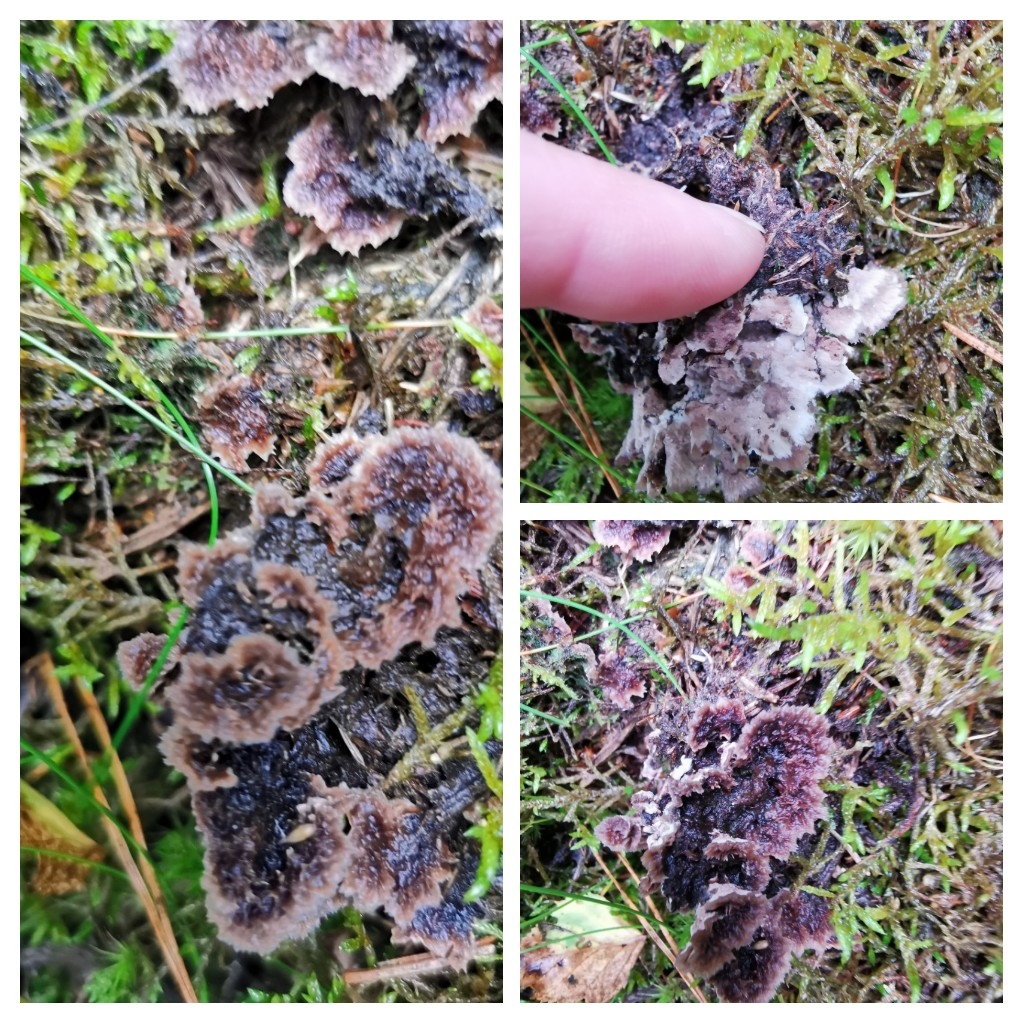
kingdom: Fungi
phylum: Basidiomycota
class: Agaricomycetes
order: Thelephorales
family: Thelephoraceae
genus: Thelephora
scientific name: Thelephora terrestris
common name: fliget frynsesvamp
